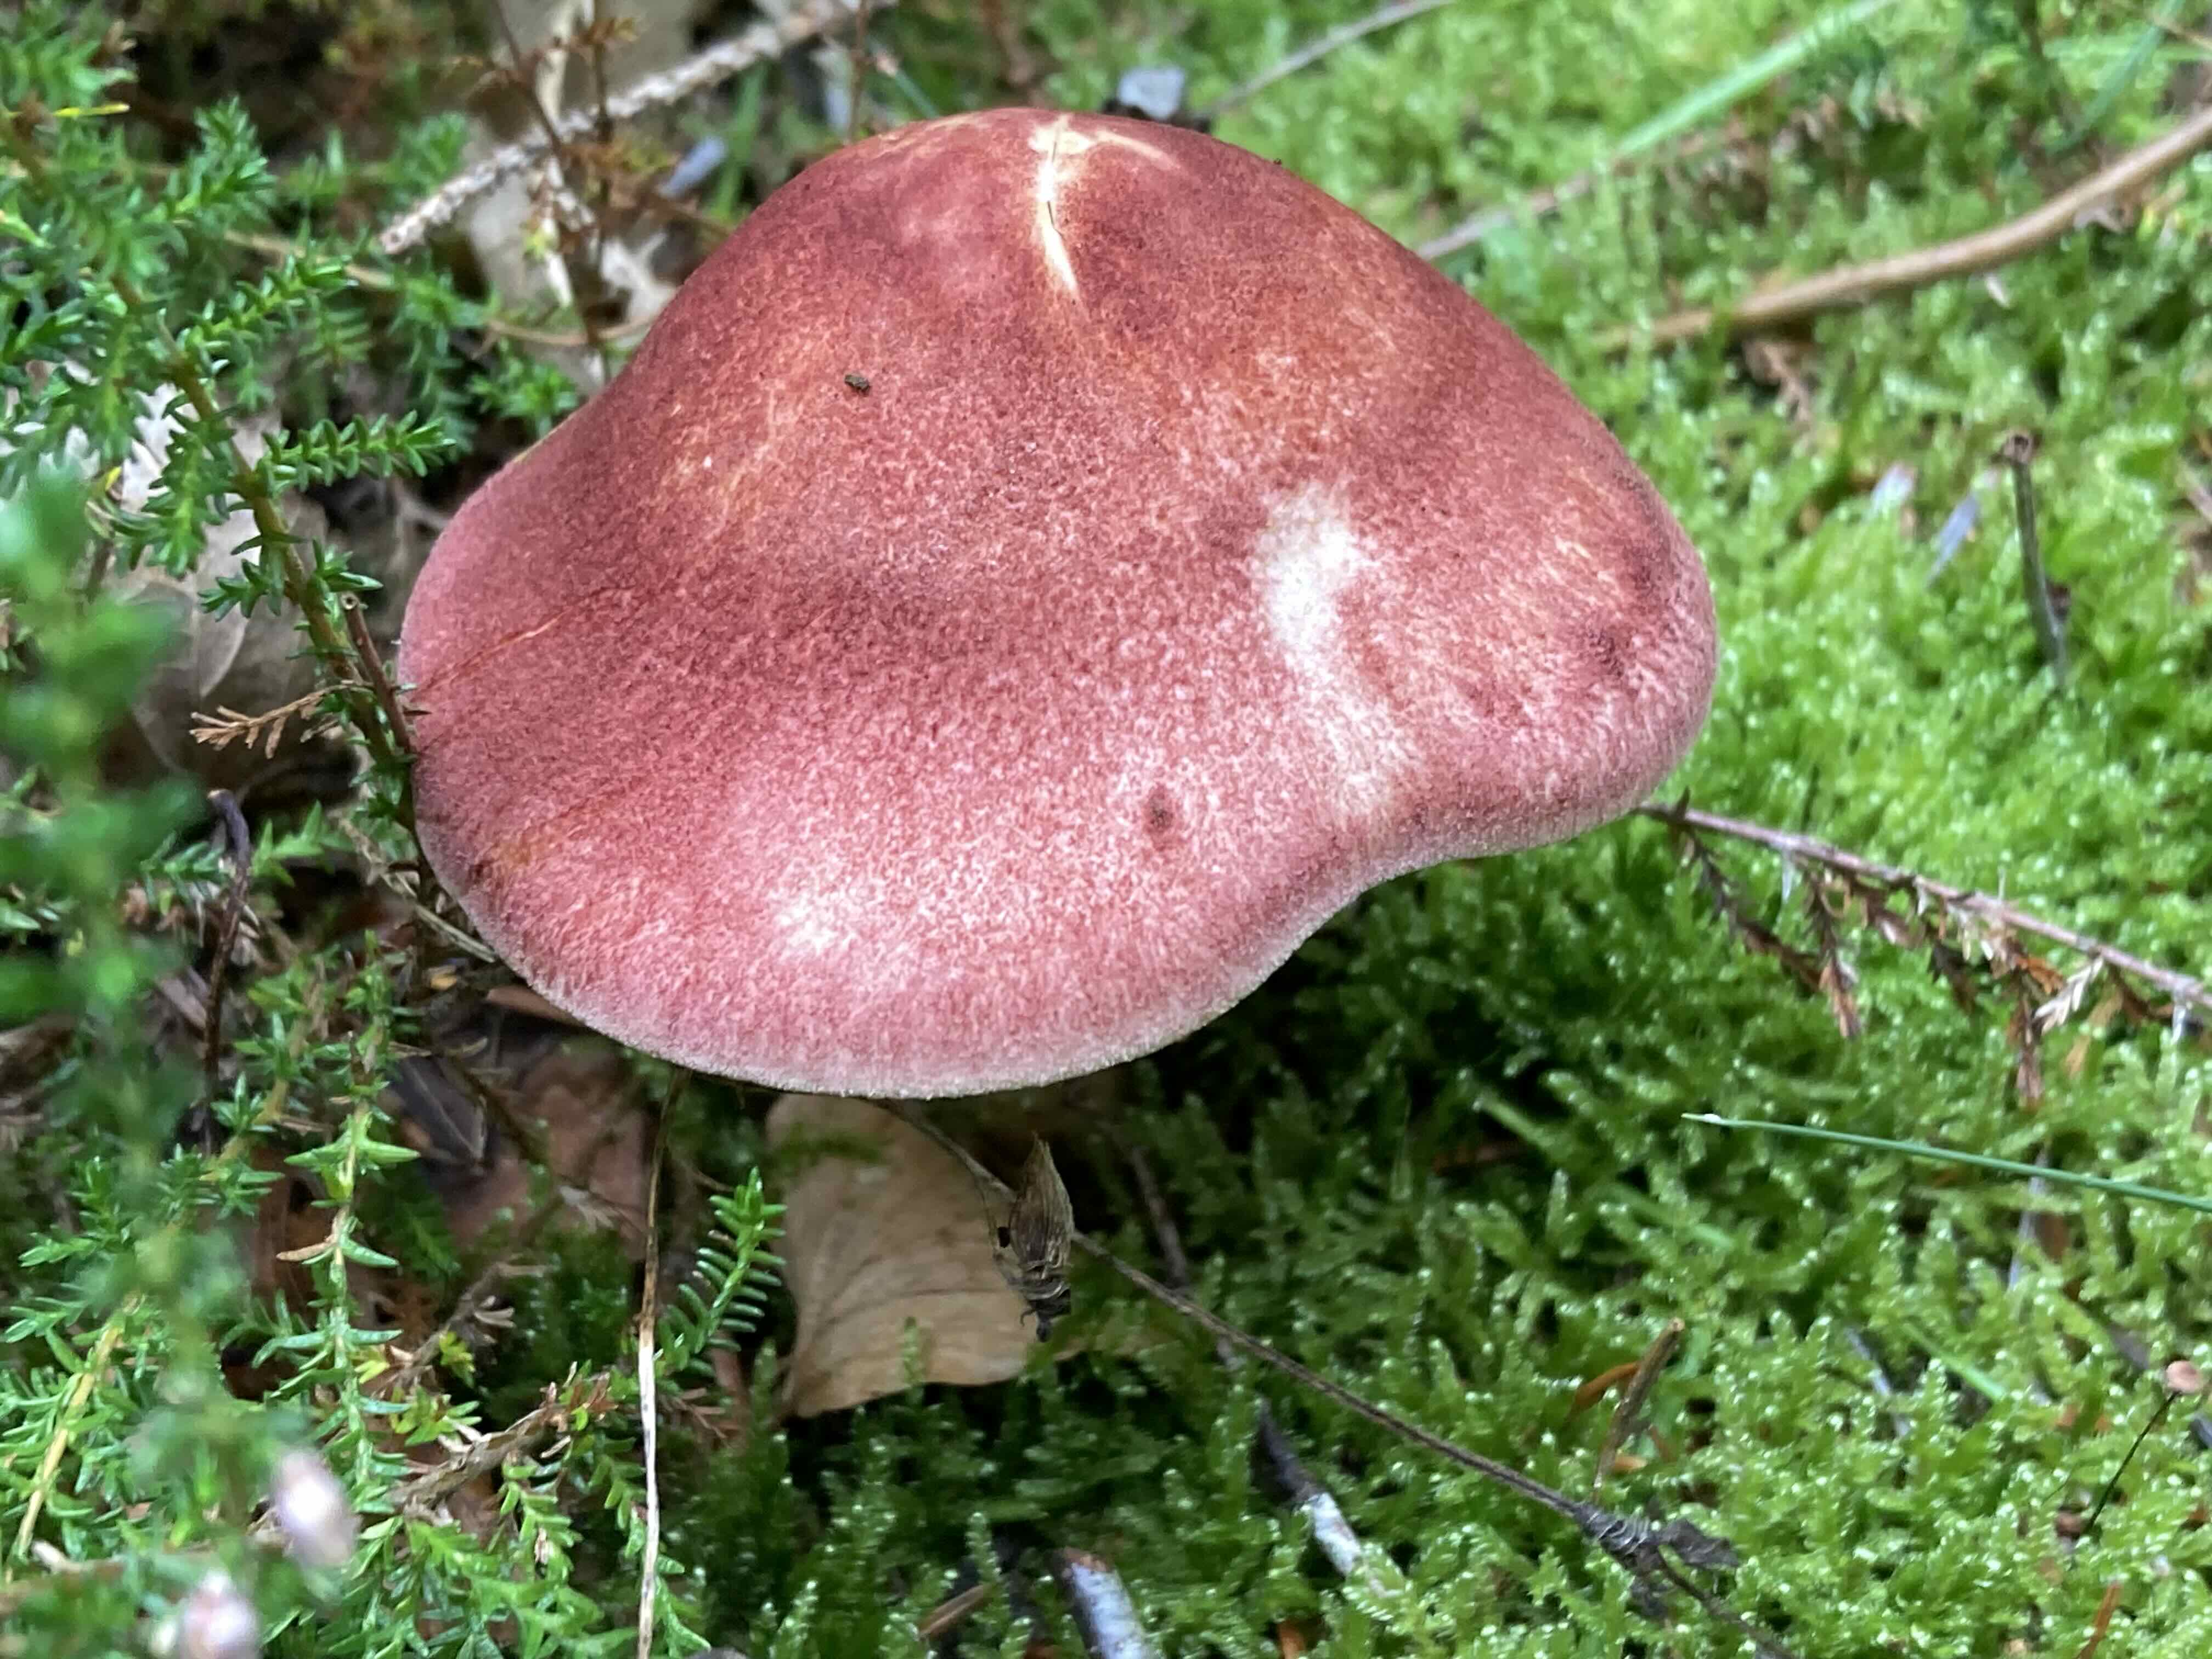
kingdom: Fungi
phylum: Basidiomycota
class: Agaricomycetes
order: Agaricales
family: Tricholomataceae
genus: Tricholomopsis
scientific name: Tricholomopsis rutilans
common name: purpur-væbnerhat
